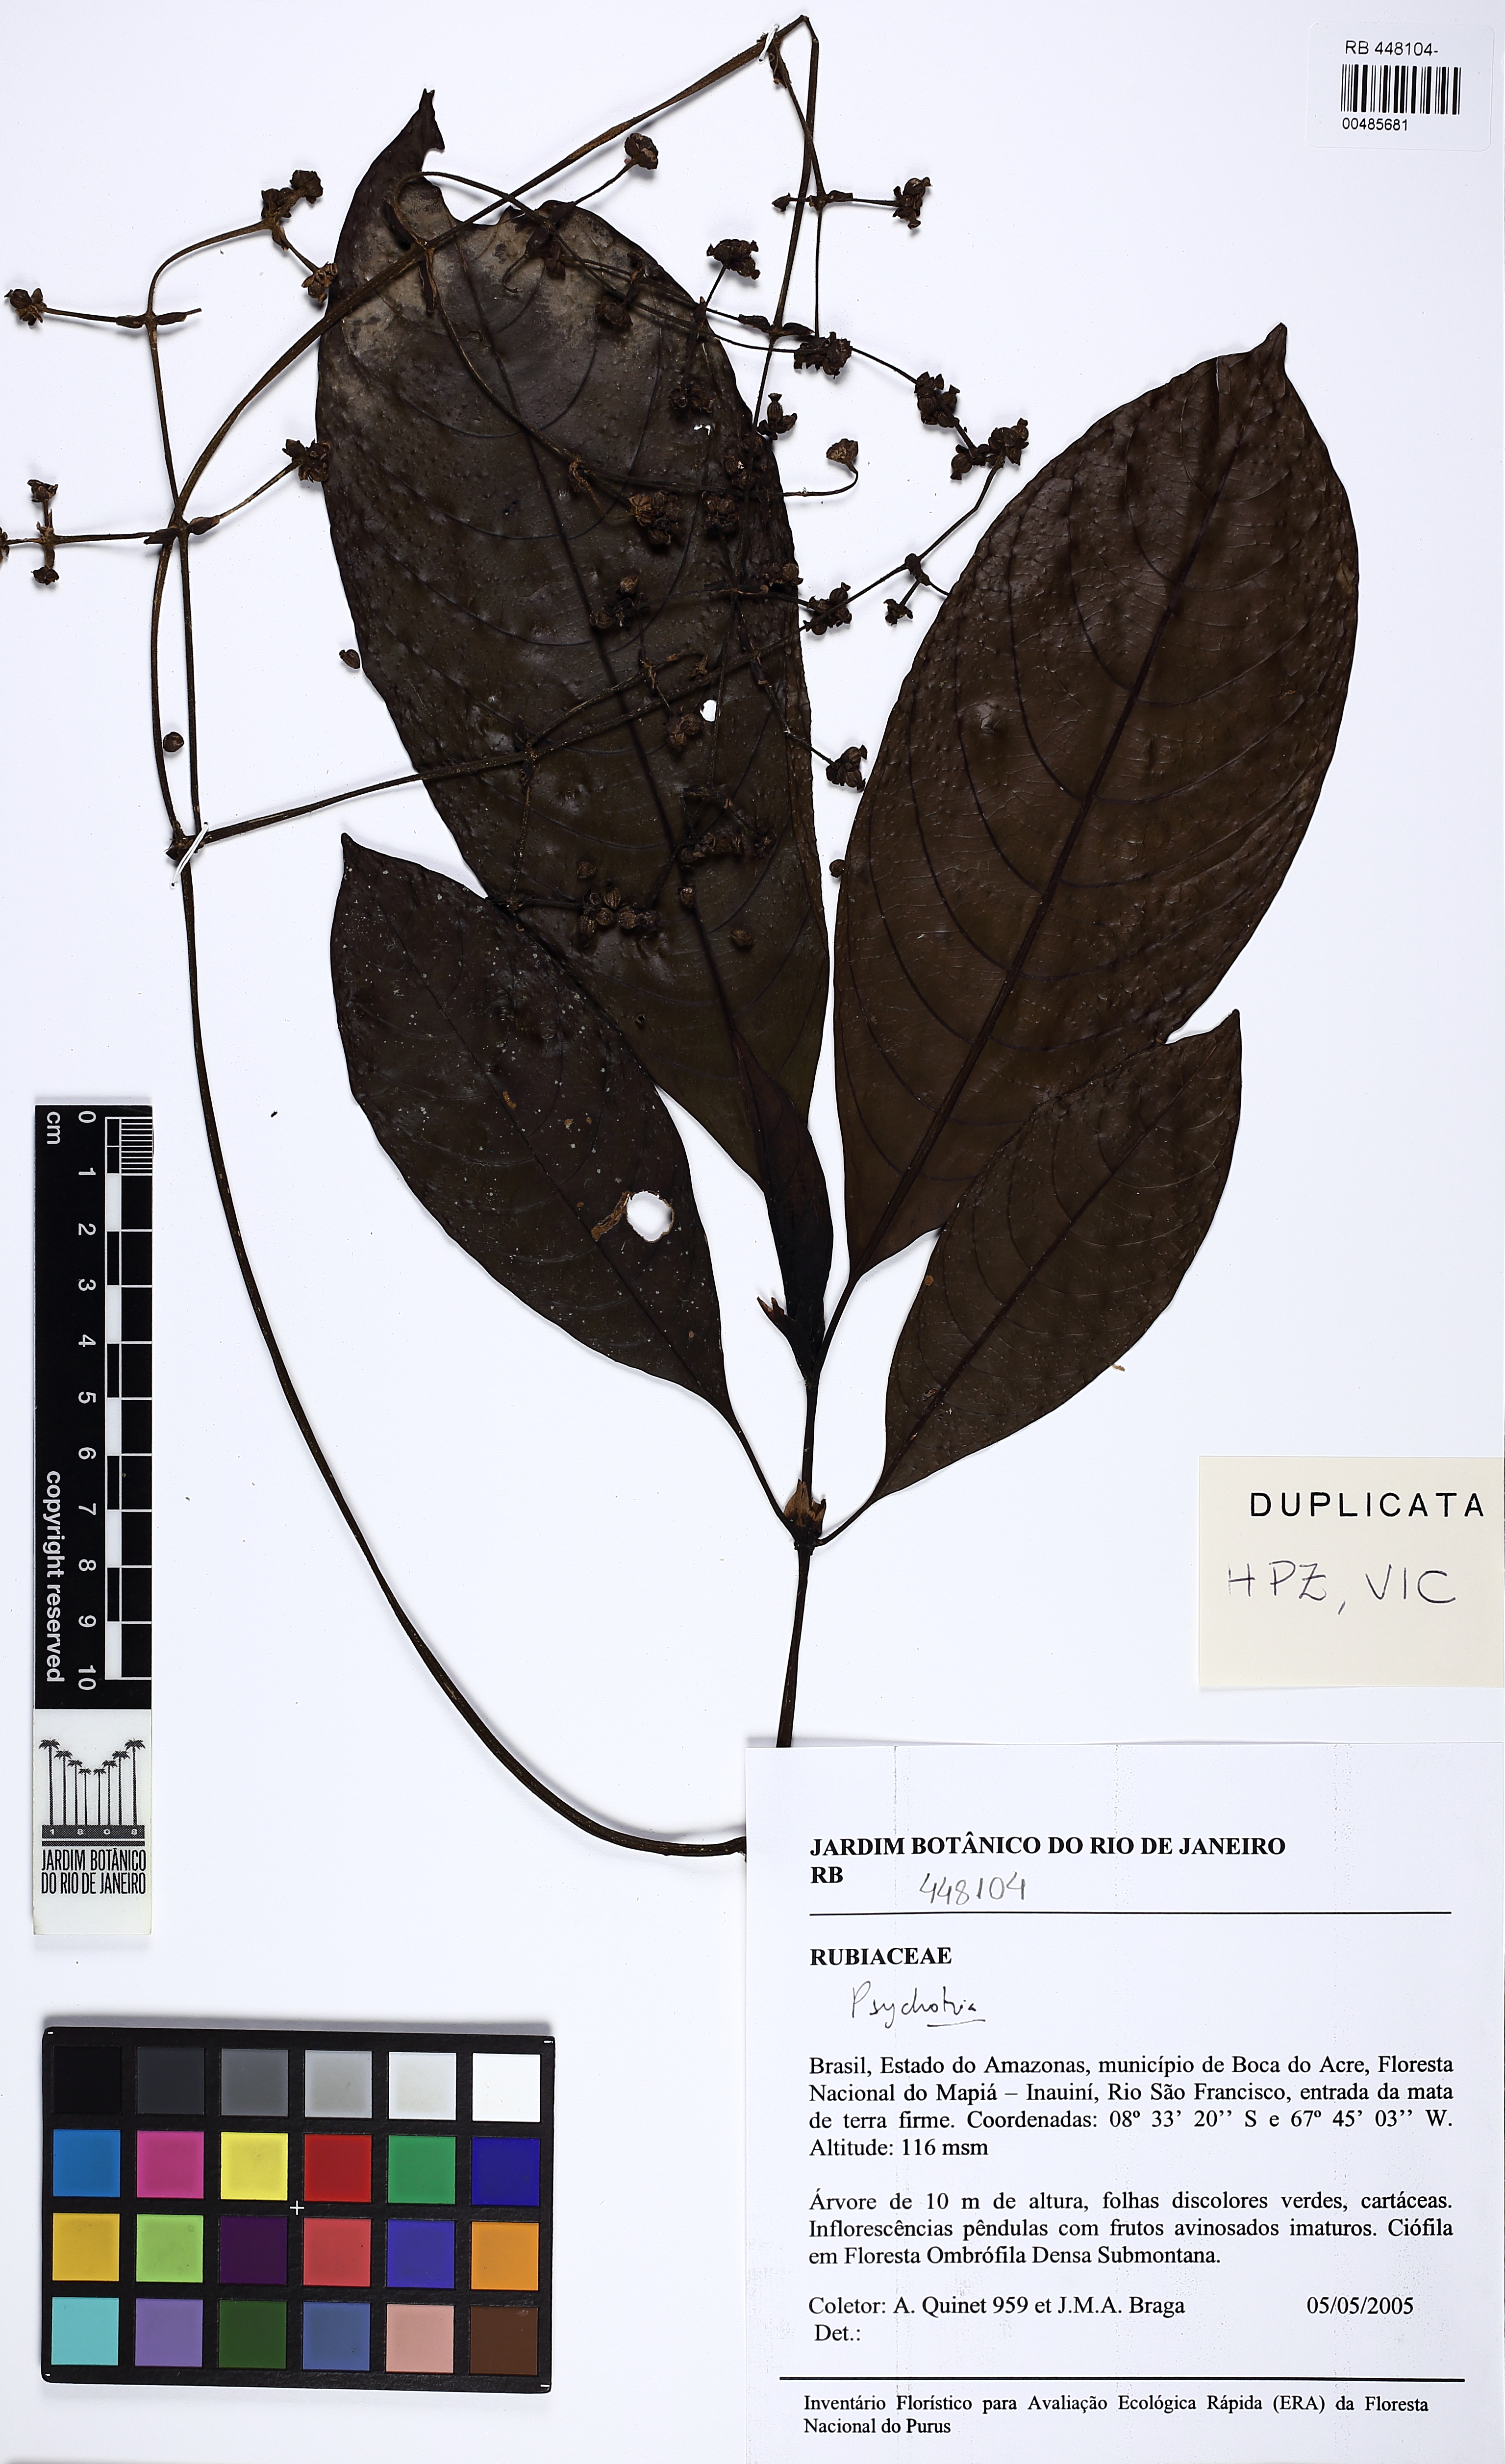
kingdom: Plantae
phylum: Tracheophyta
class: Magnoliopsida
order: Gentianales
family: Rubiaceae
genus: Palicourea
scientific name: Palicourea vellerea
